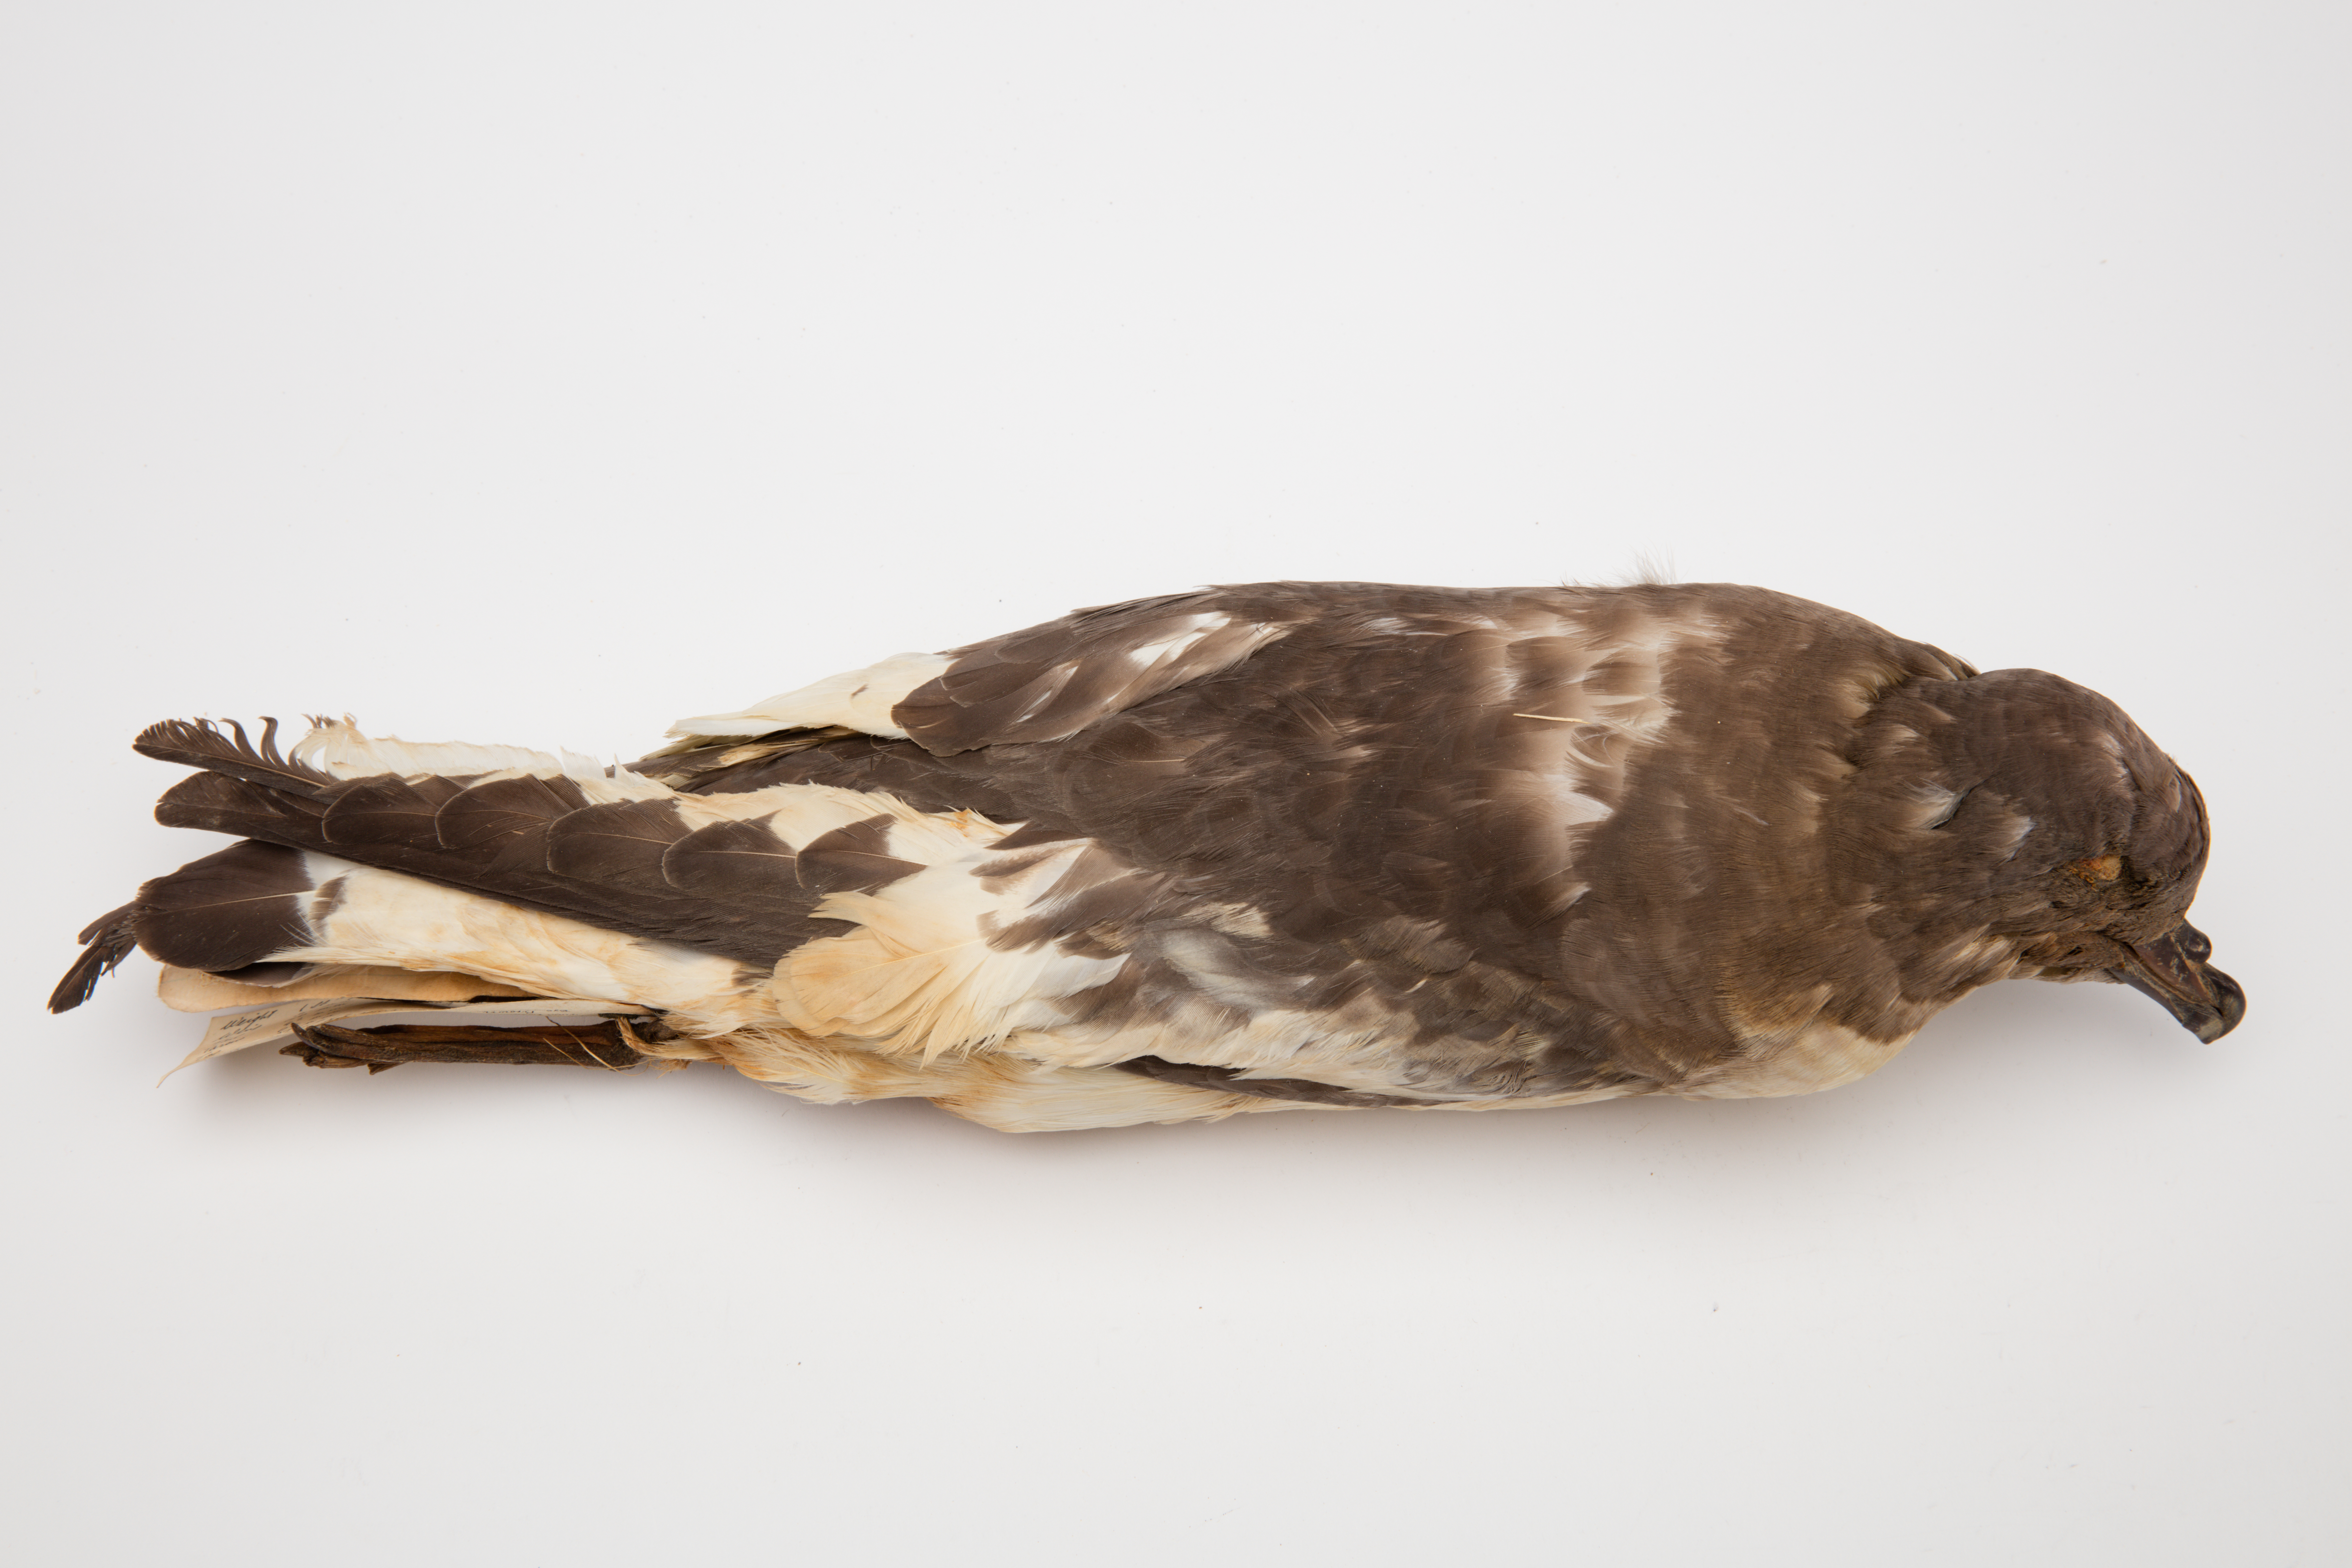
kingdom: Animalia
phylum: Chordata
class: Aves
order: Procellariiformes
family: Procellariidae
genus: Thalassoica
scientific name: Thalassoica antarctica
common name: Antarctic petrel
